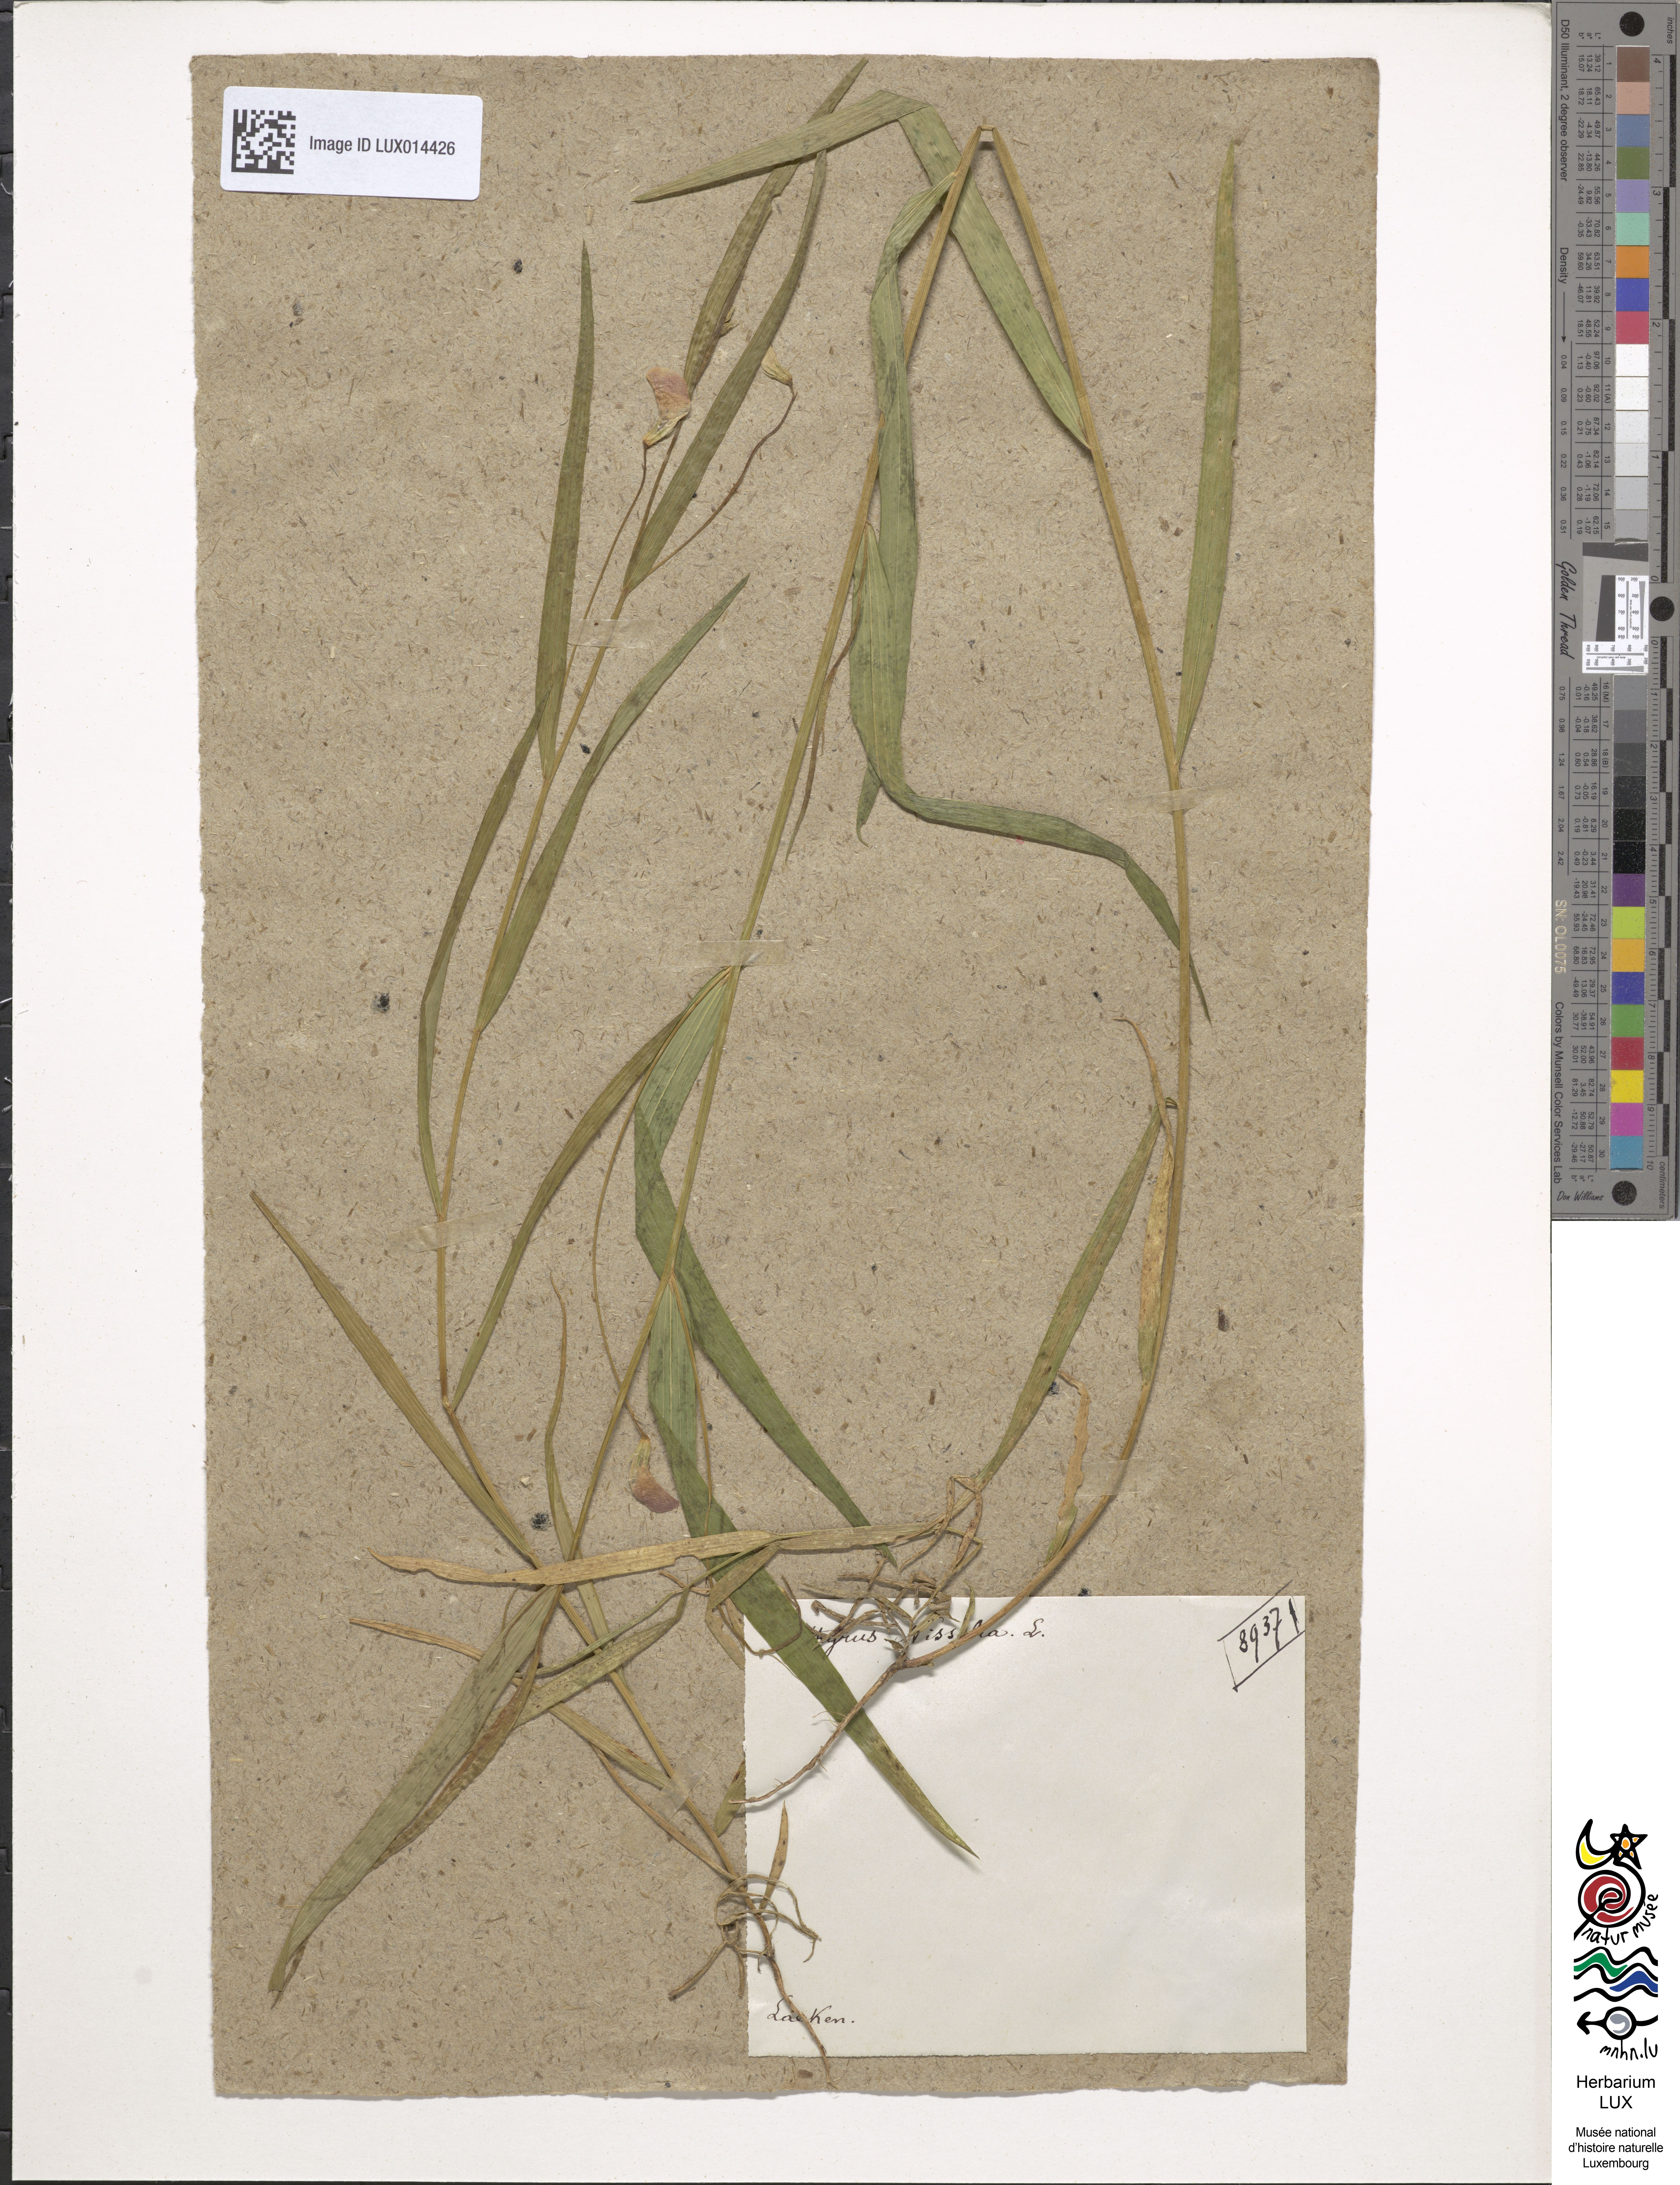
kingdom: Plantae
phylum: Tracheophyta
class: Magnoliopsida
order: Fabales
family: Fabaceae
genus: Lathyrus
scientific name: Lathyrus nissolia
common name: Grass vetchling
